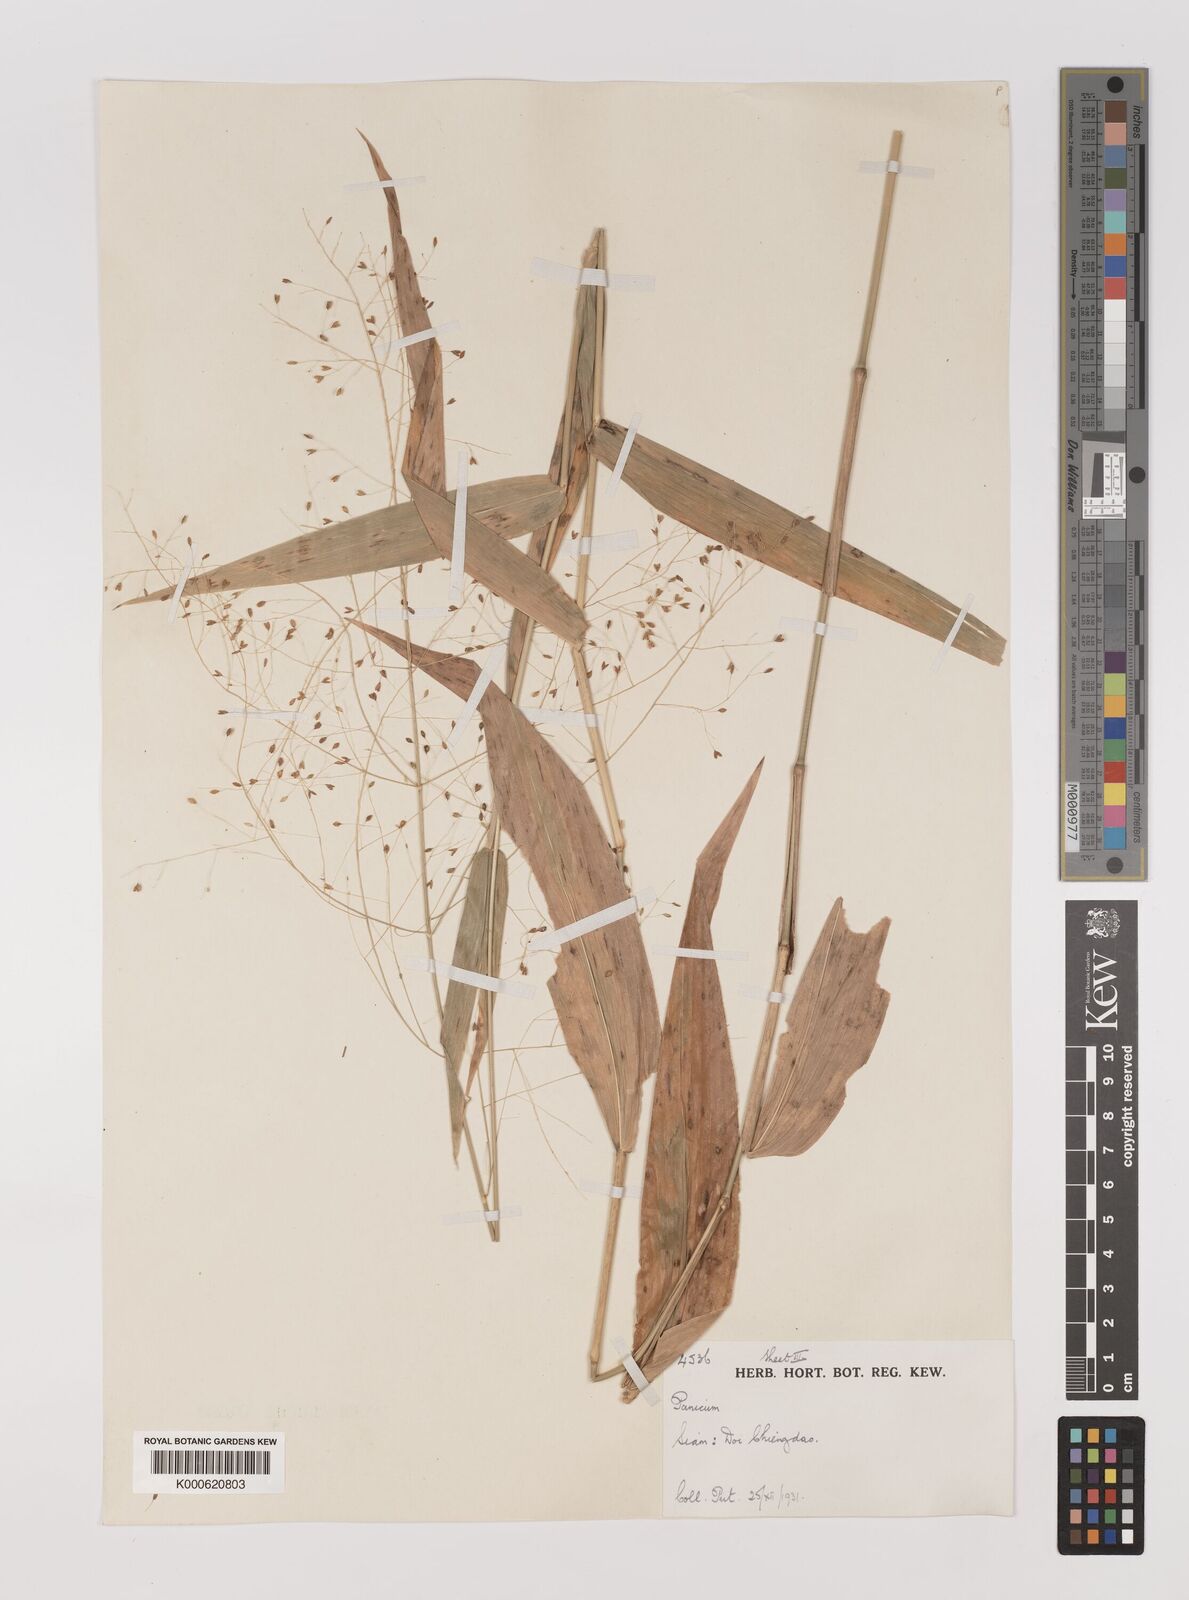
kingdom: Plantae
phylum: Tracheophyta
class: Liliopsida
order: Poales
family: Poaceae
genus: Panicum
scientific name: Panicum notatum
